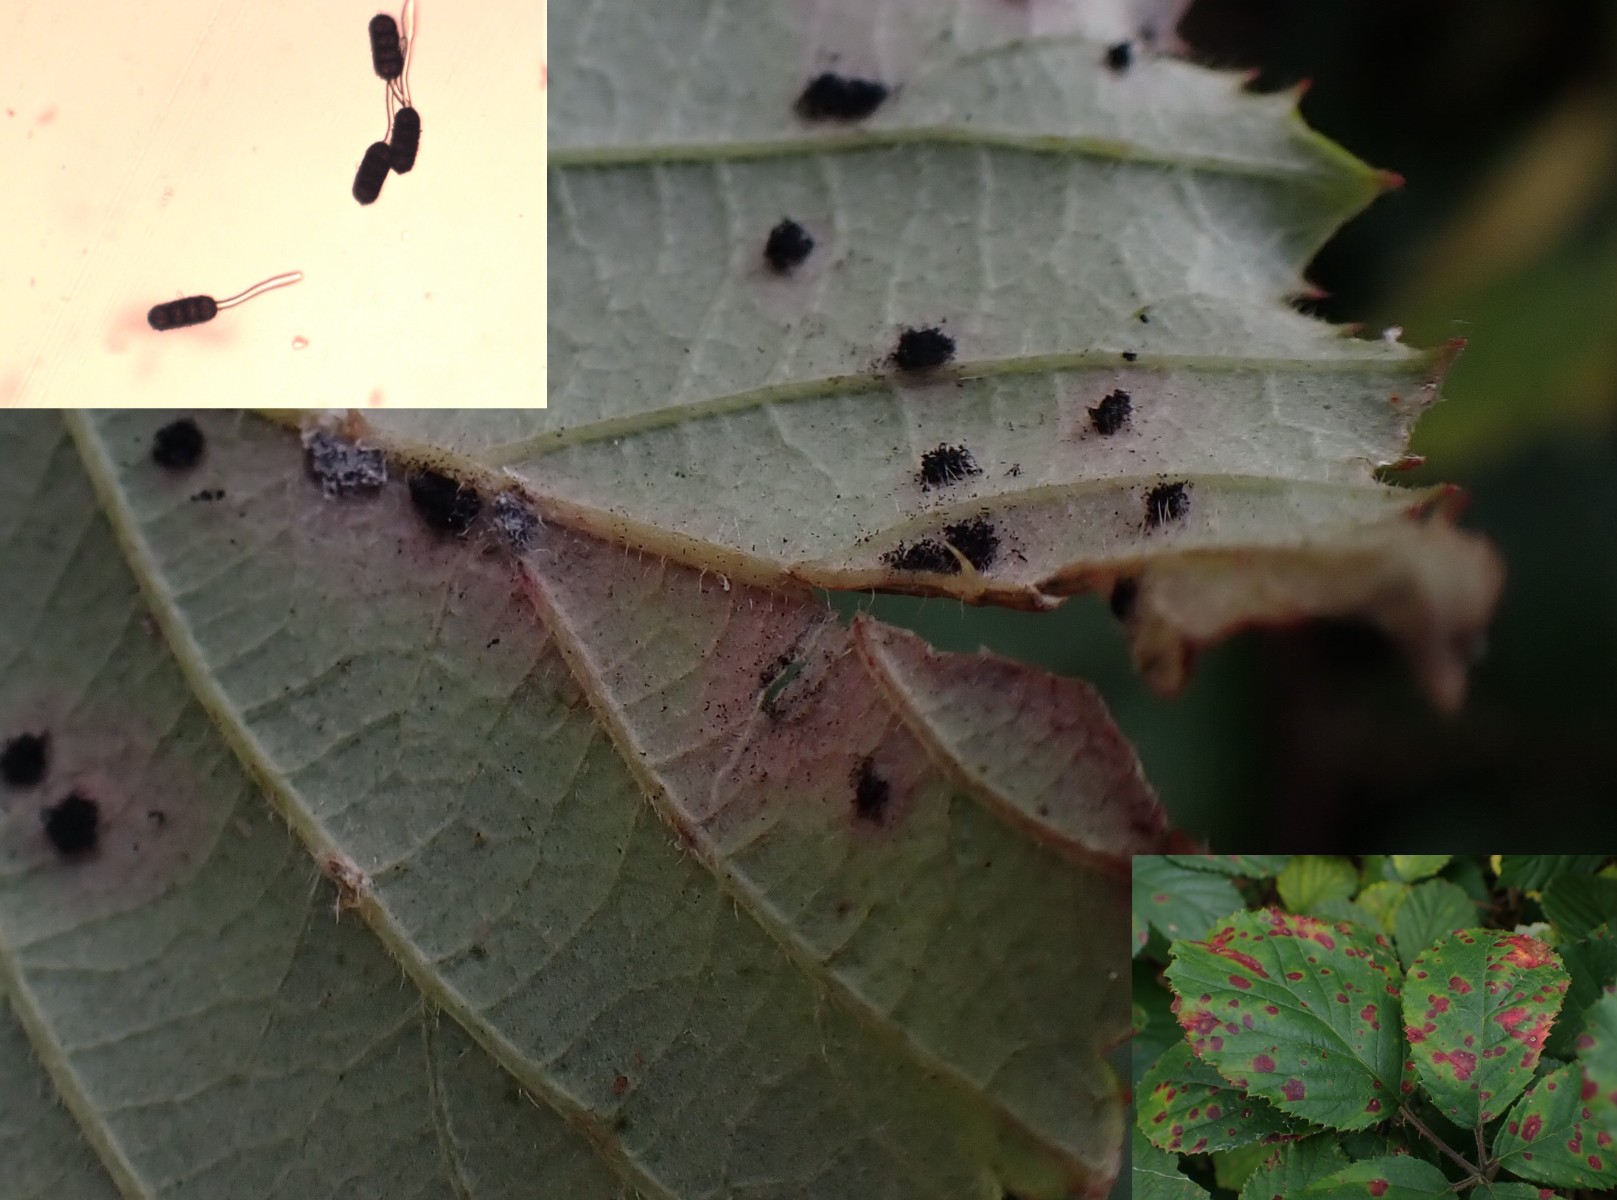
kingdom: Fungi
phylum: Basidiomycota
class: Pucciniomycetes
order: Pucciniales
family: Phragmidiaceae
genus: Phragmidium
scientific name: Phragmidium violaceum
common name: violet flercellerust
